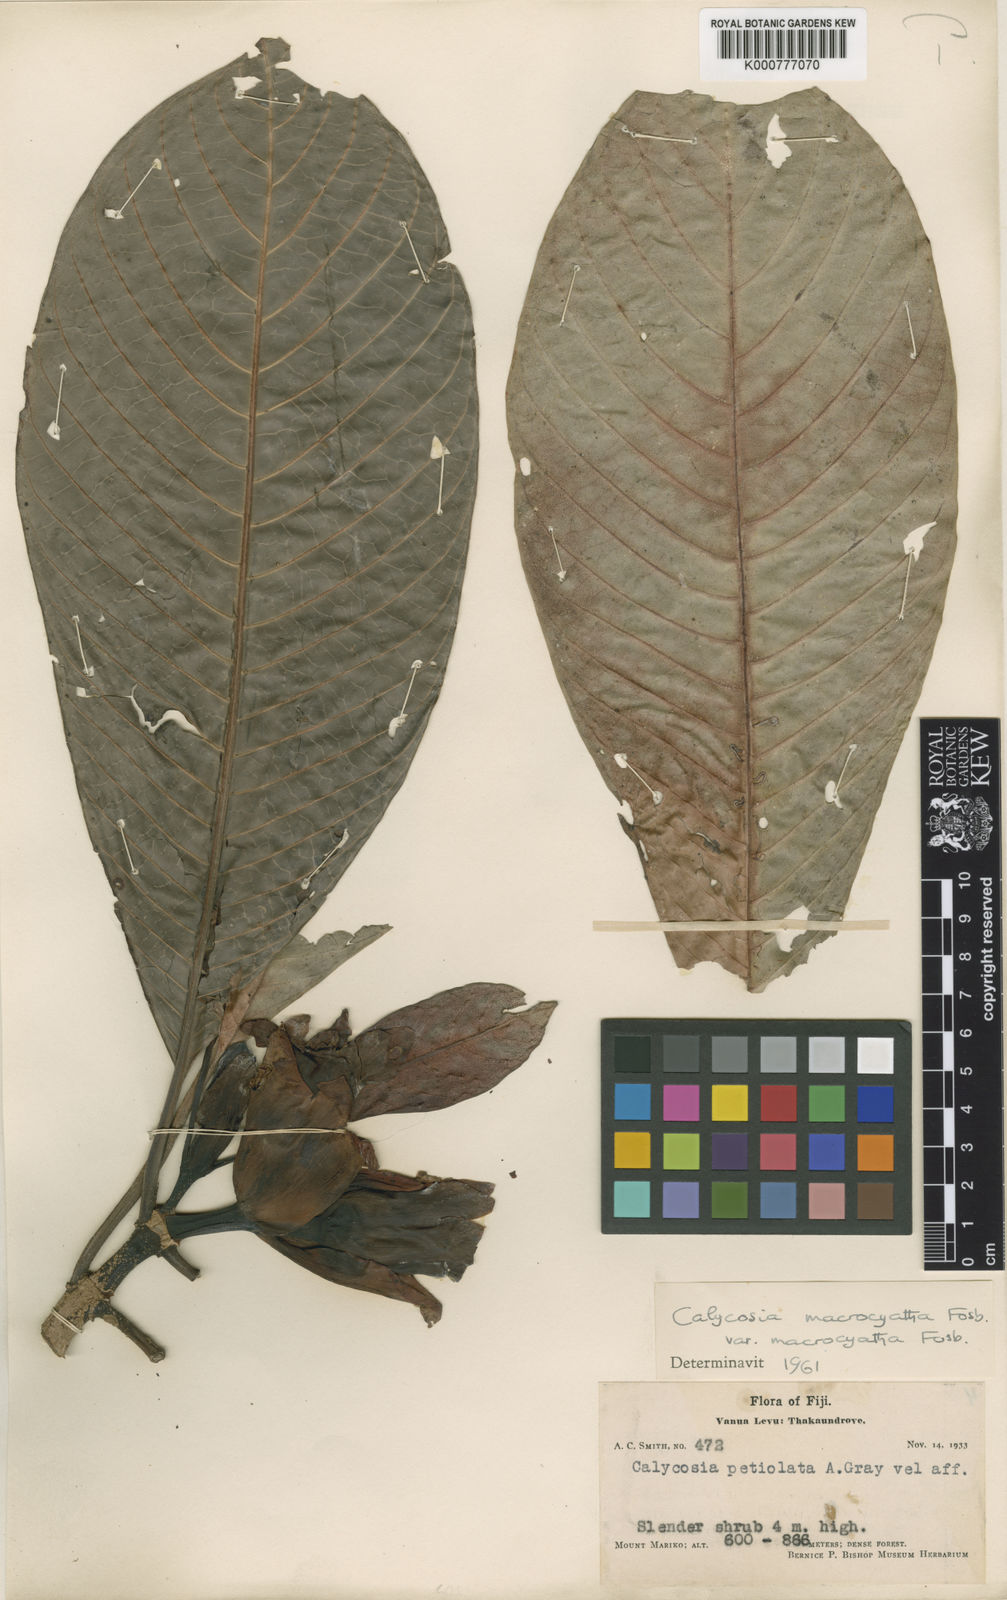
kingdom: Plantae
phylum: Tracheophyta
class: Magnoliopsida
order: Gentianales
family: Rubiaceae
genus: Calycosia
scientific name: Calycosia macrocyatha
